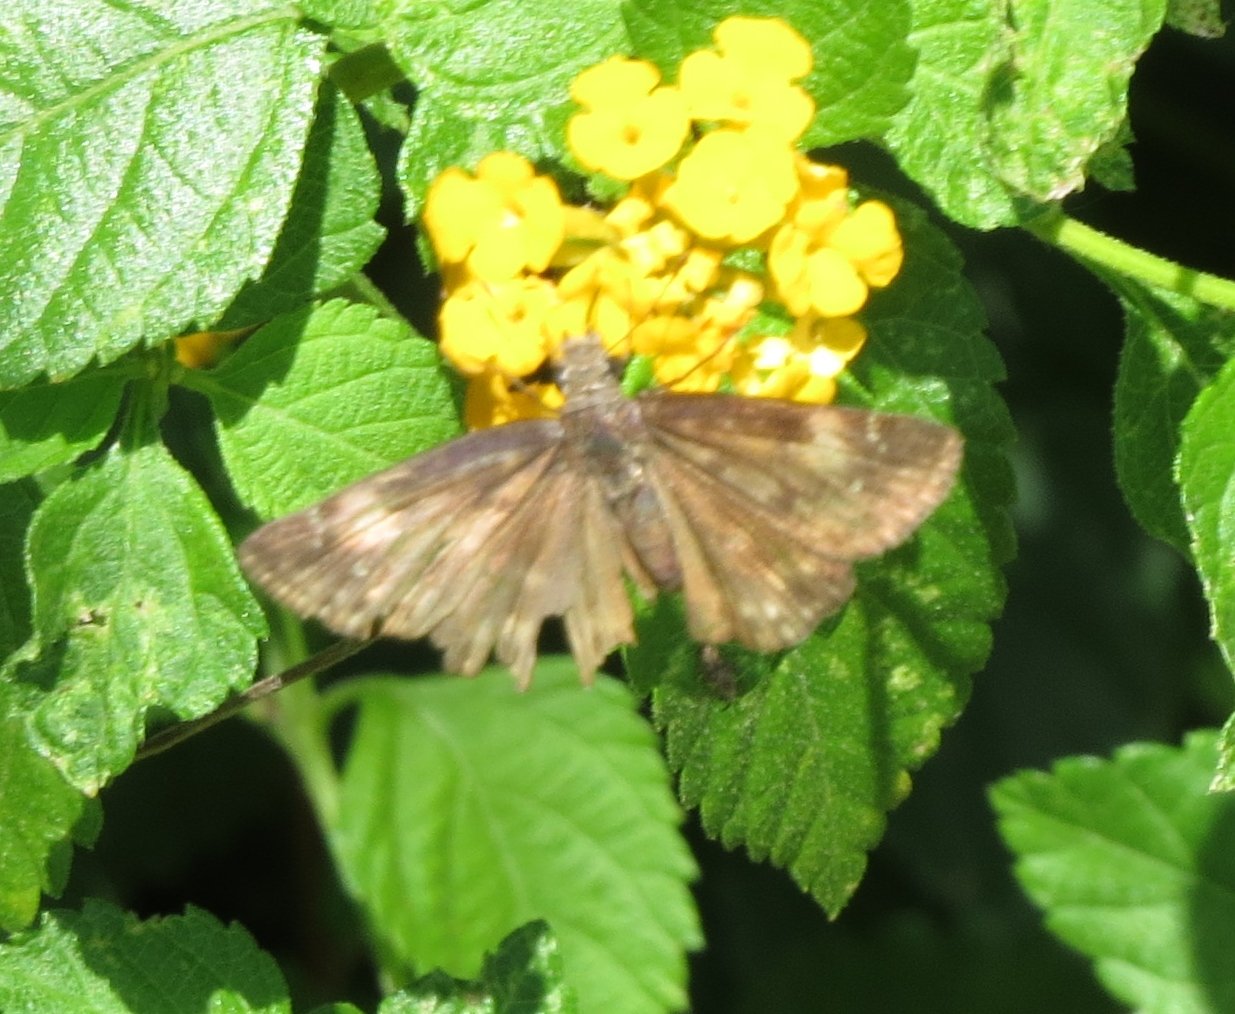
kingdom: Animalia
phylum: Arthropoda
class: Insecta
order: Lepidoptera
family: Hesperiidae
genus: Gesta
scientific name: Gesta
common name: Wild Indigo Duskywing
